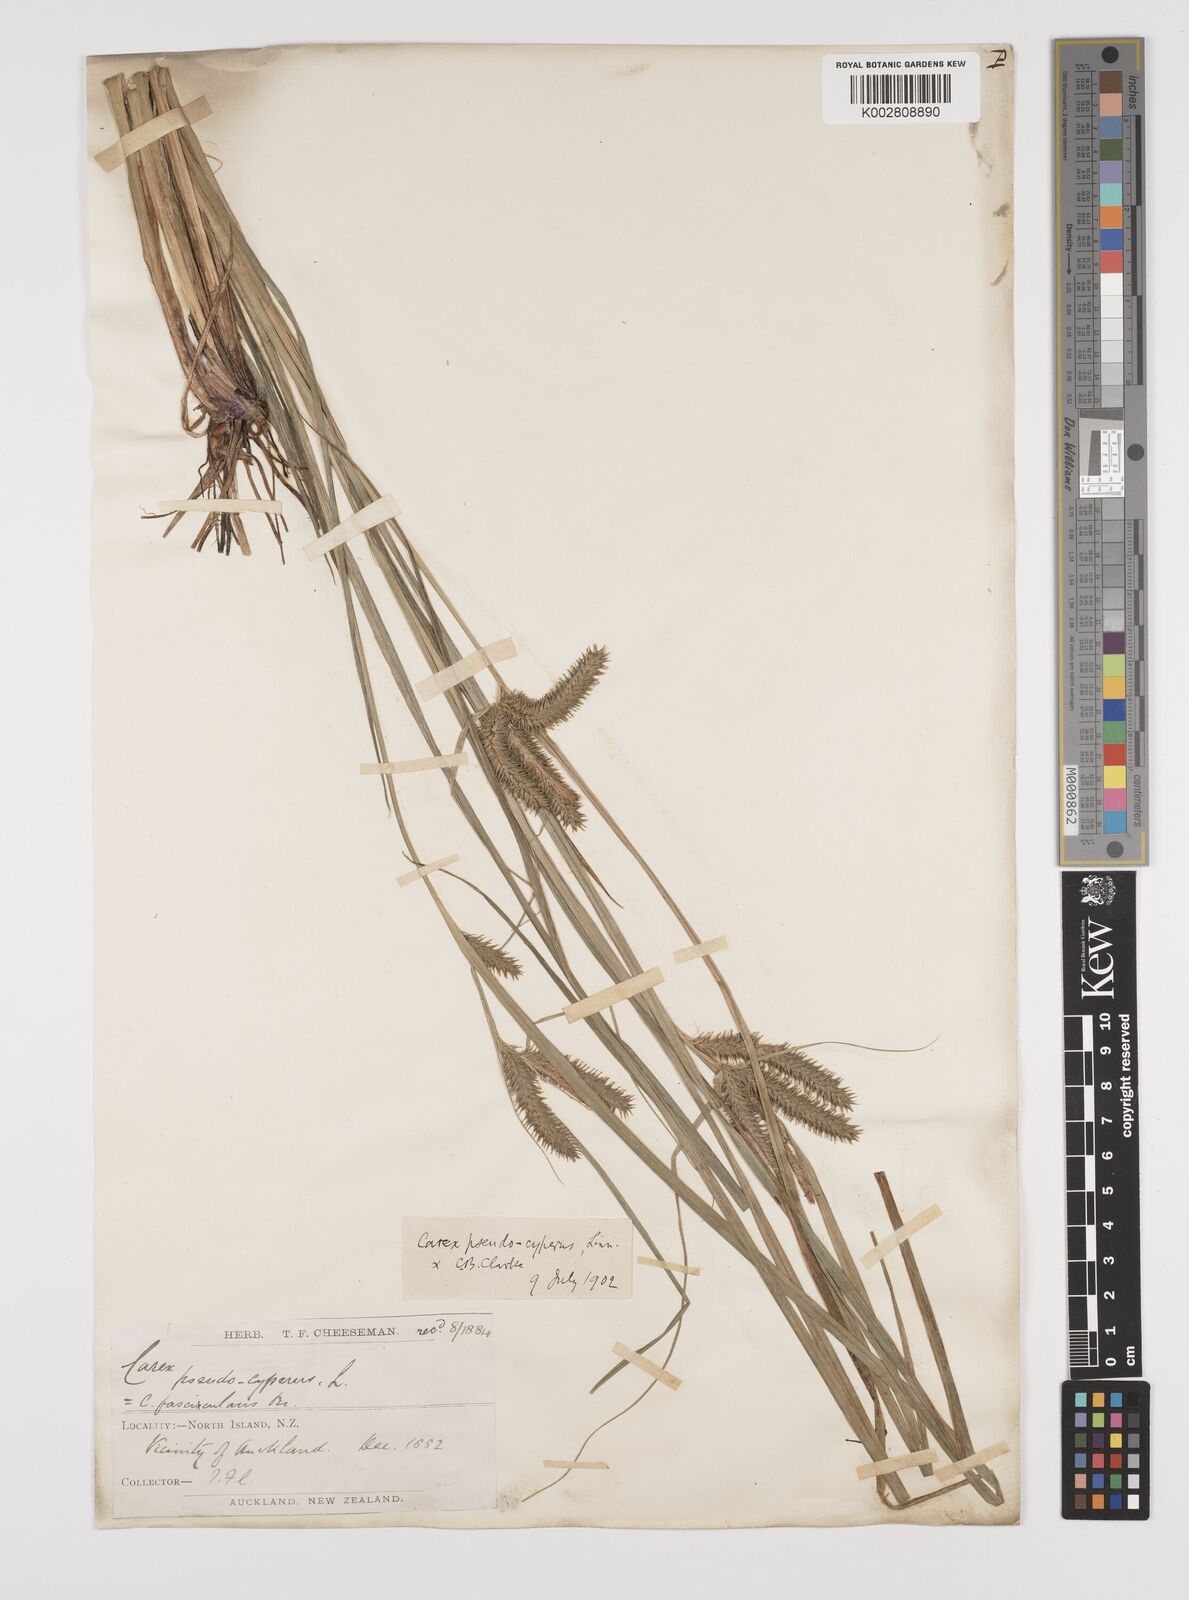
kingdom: Plantae
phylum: Tracheophyta
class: Liliopsida
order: Poales
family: Cyperaceae
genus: Carex
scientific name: Carex fascicularis
